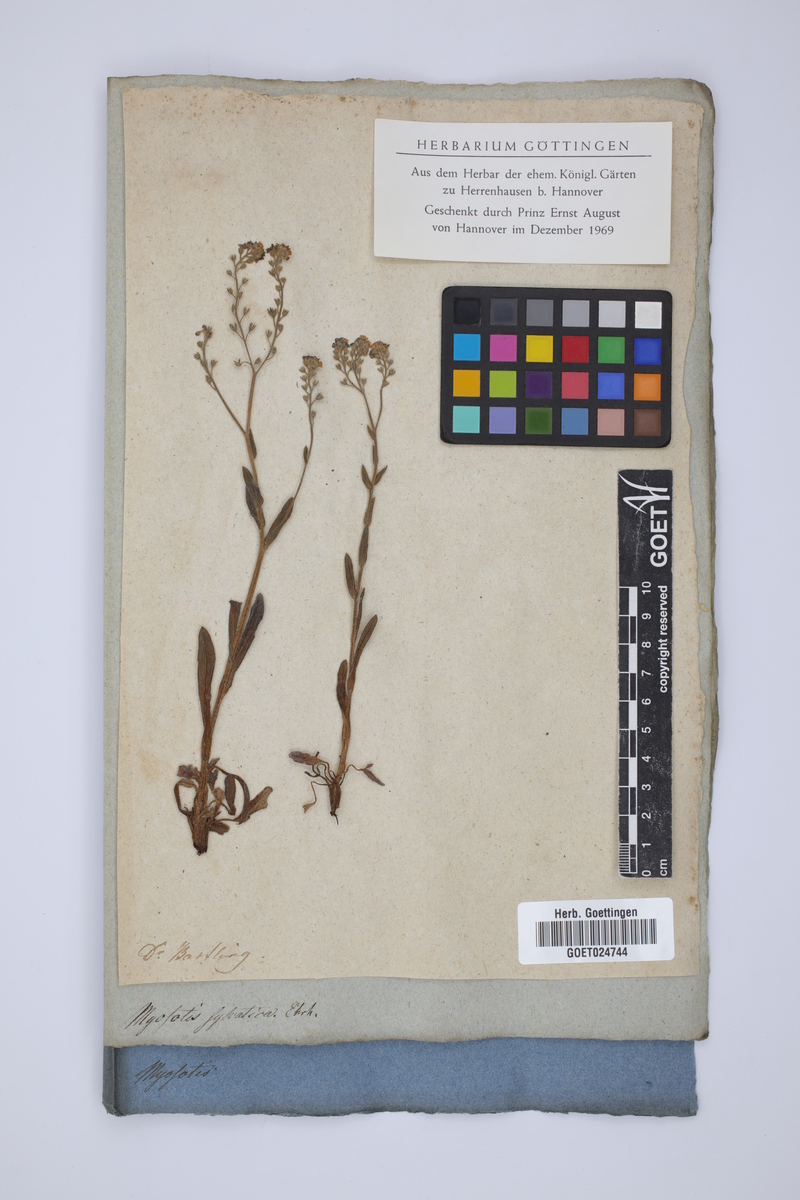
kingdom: Plantae
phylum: Tracheophyta
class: Magnoliopsida
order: Boraginales
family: Boraginaceae
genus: Myosotis
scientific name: Myosotis sylvatica
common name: Wood forget-me-not
